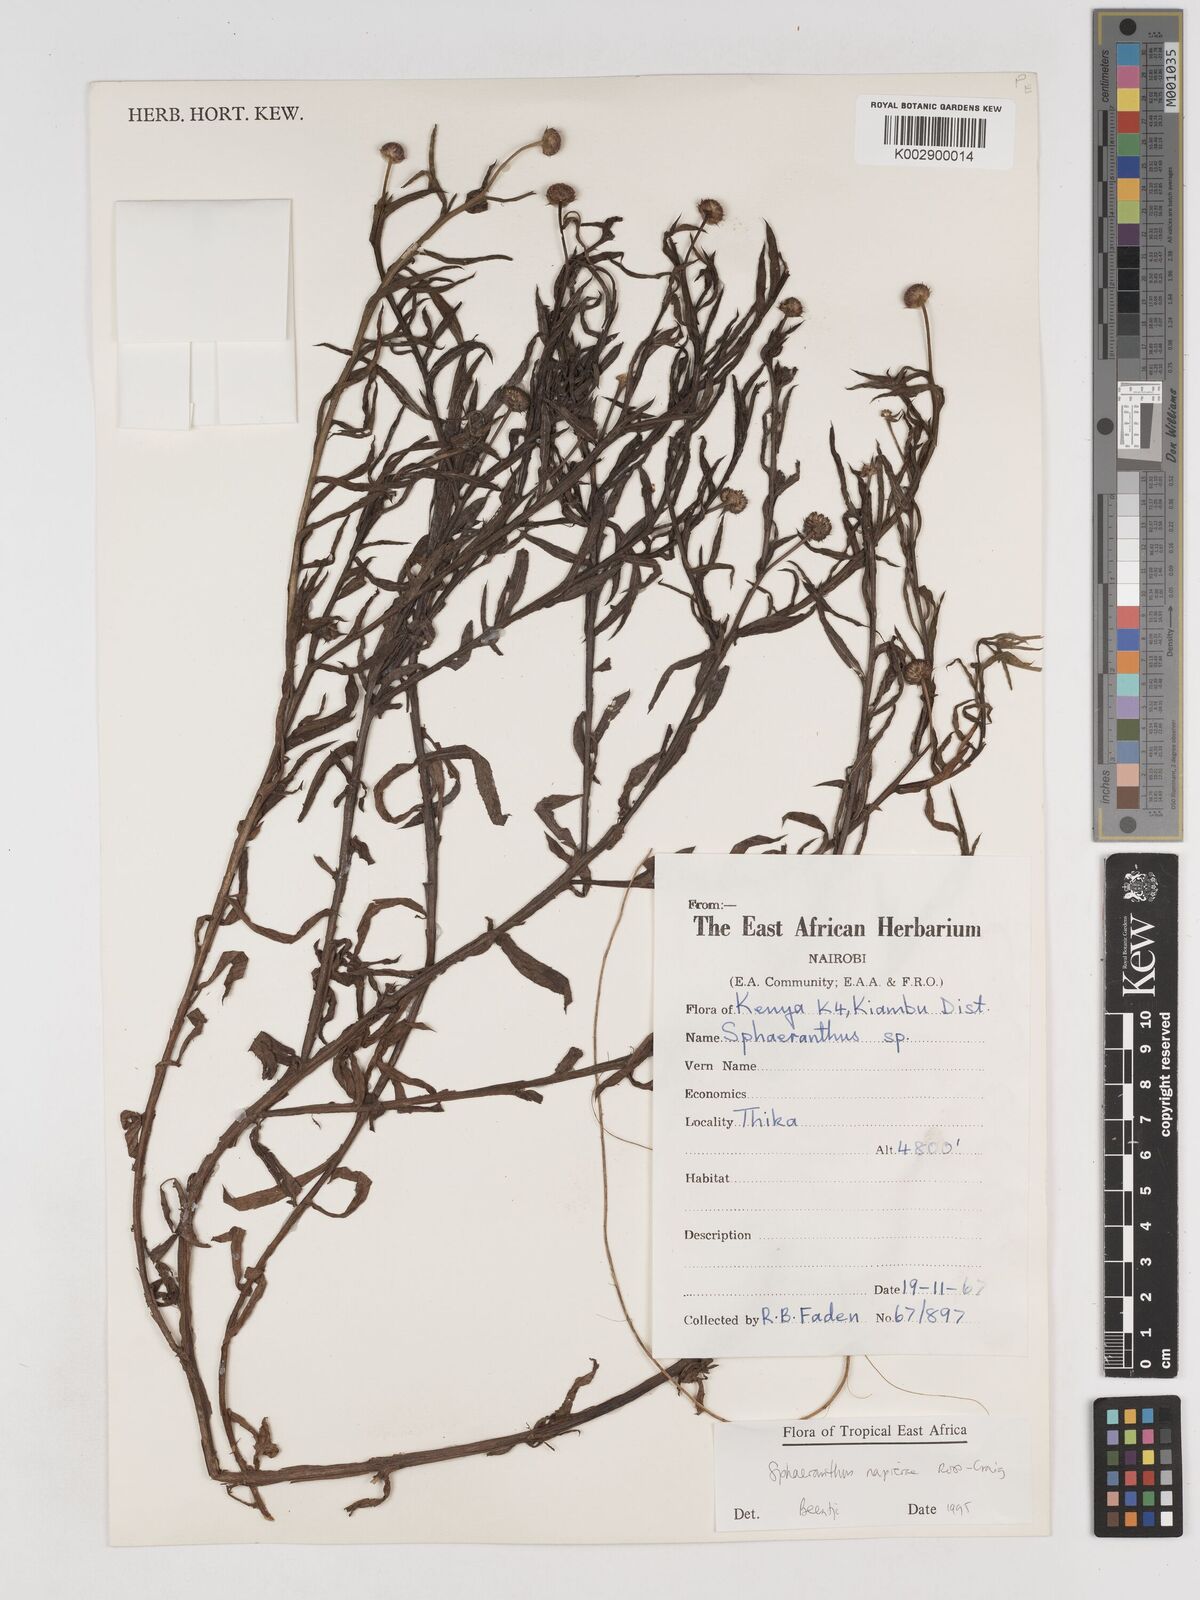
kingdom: Plantae
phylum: Tracheophyta
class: Magnoliopsida
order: Asterales
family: Asteraceae
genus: Sphaeranthus
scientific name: Sphaeranthus suaveolens
